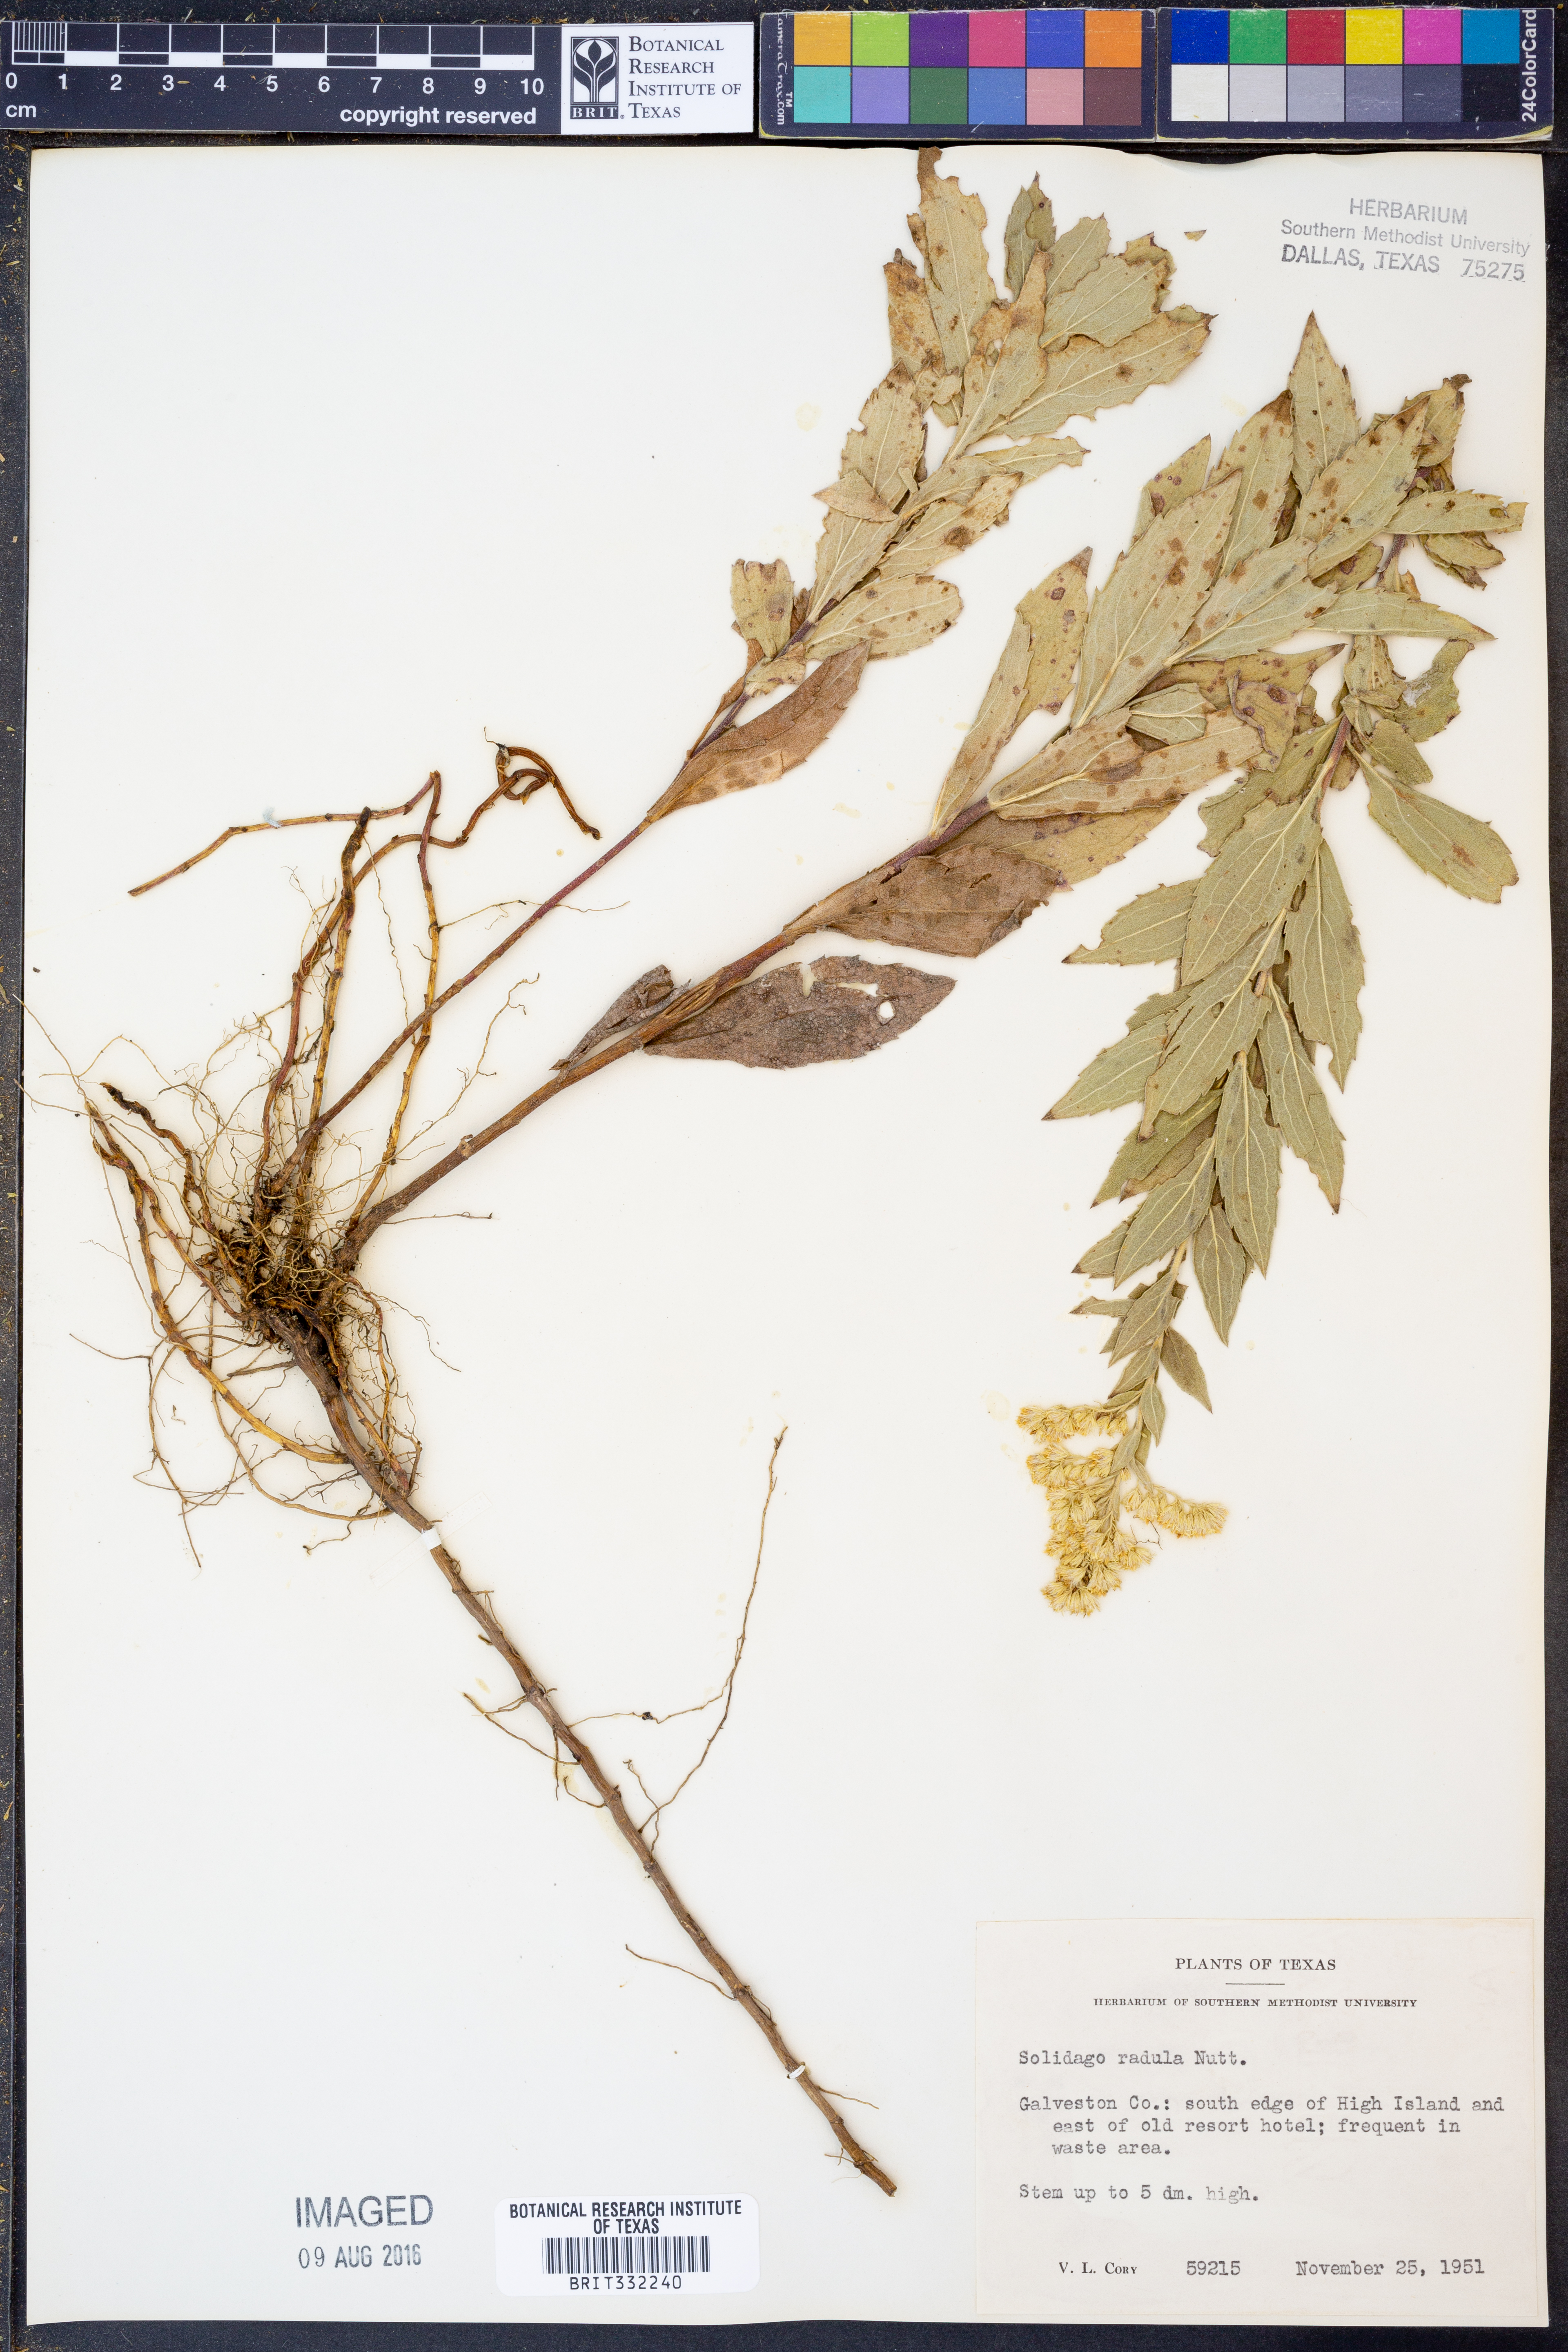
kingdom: Plantae
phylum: Tracheophyta
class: Magnoliopsida
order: Asterales
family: Asteraceae
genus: Solidago
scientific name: Solidago radula
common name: Western rough goldenrod
